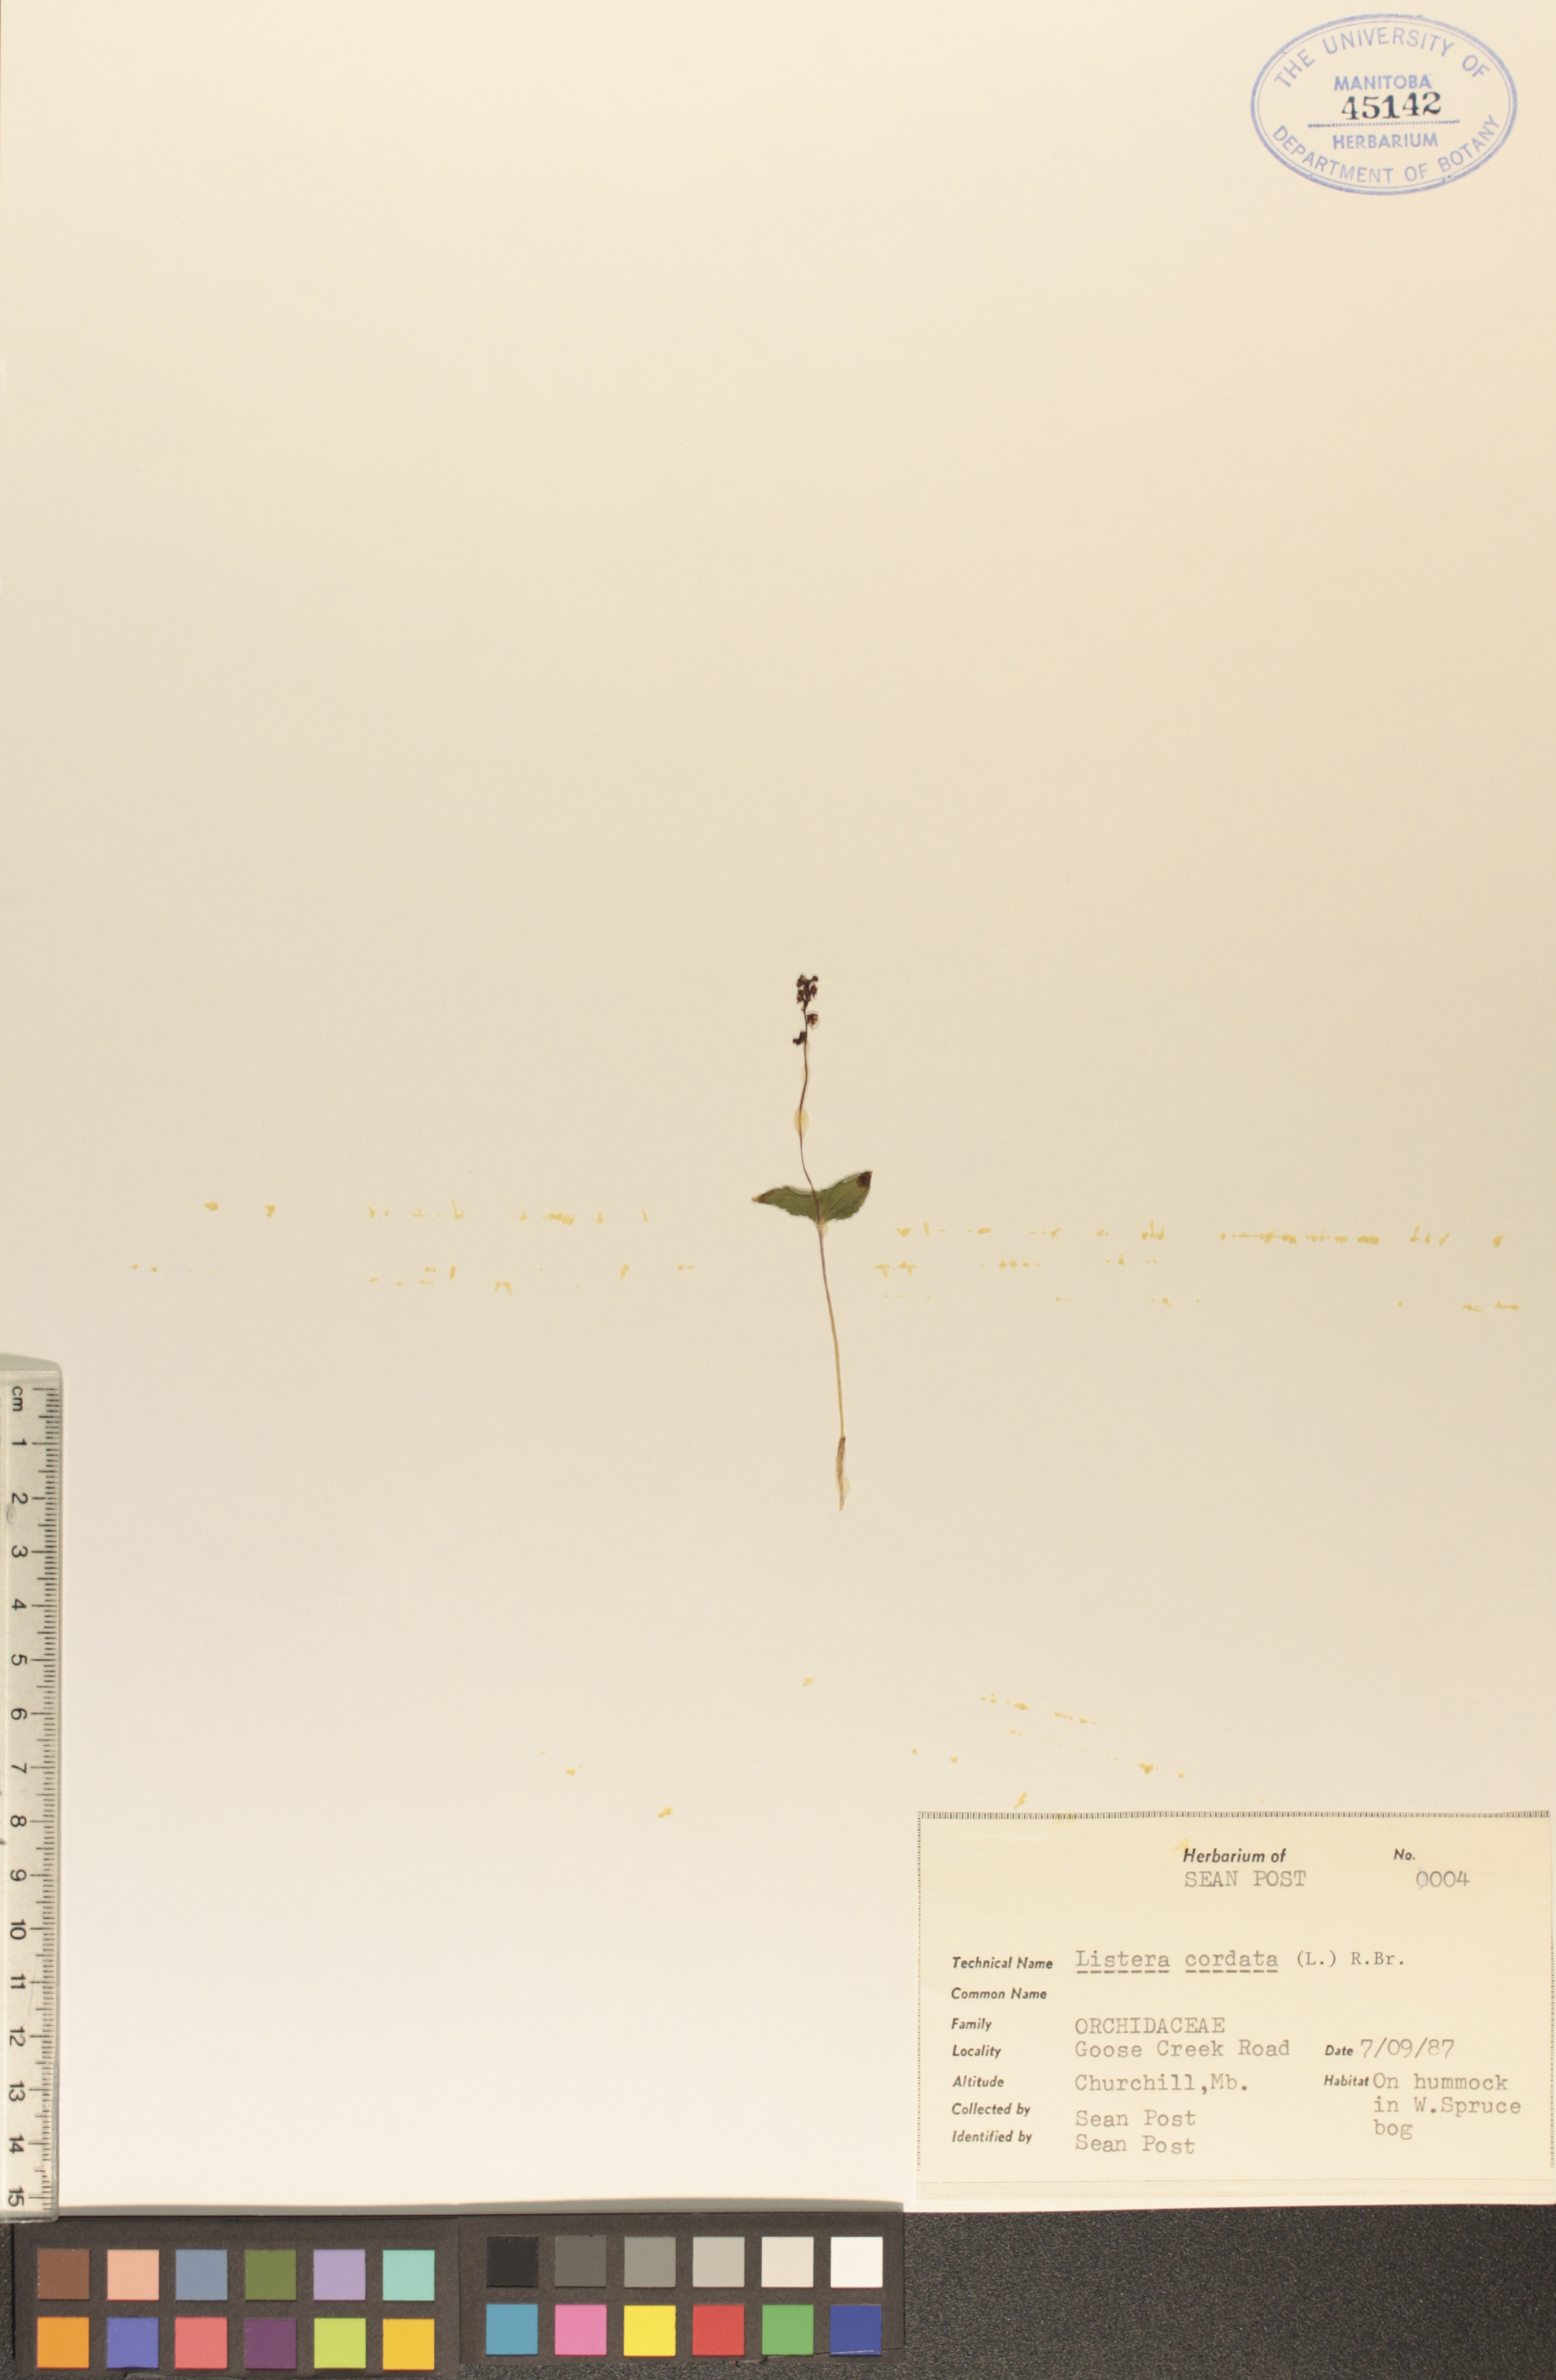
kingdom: Plantae
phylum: Tracheophyta
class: Liliopsida
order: Asparagales
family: Orchidaceae
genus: Neottia
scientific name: Neottia cordata
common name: Lesser twayblade
